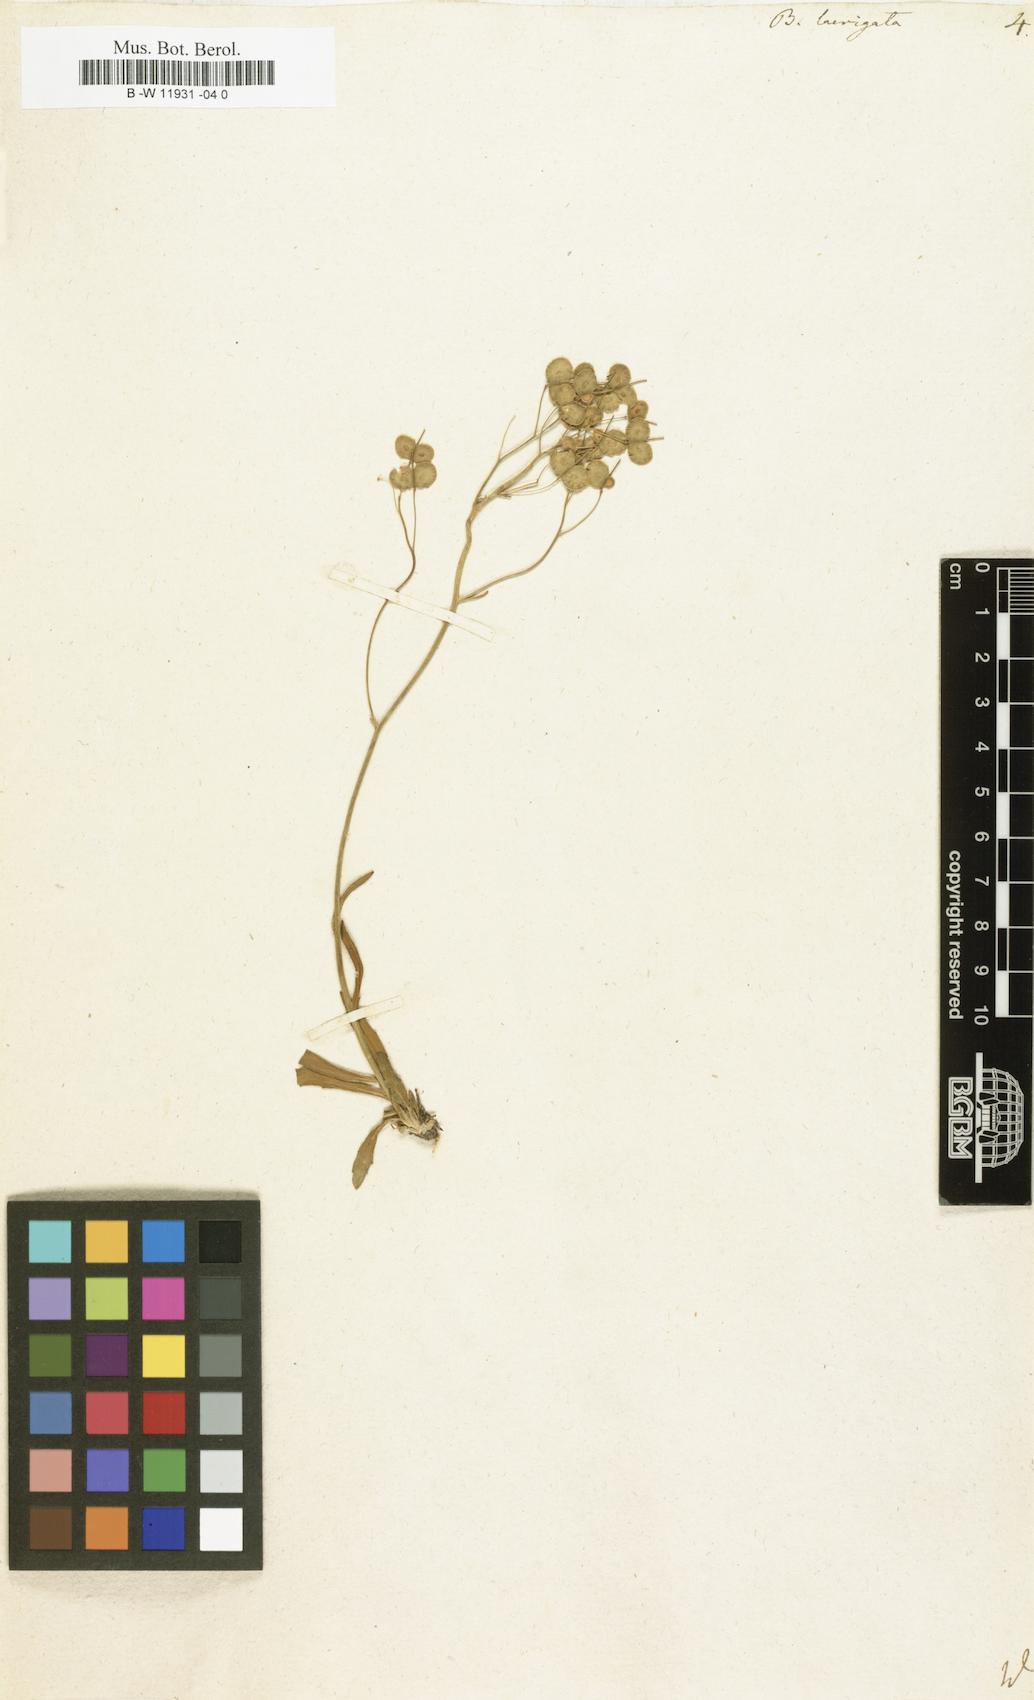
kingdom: Plantae
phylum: Tracheophyta
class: Magnoliopsida
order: Brassicales
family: Brassicaceae
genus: Biscutella
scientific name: Biscutella laevigata
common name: Buckler mustard
